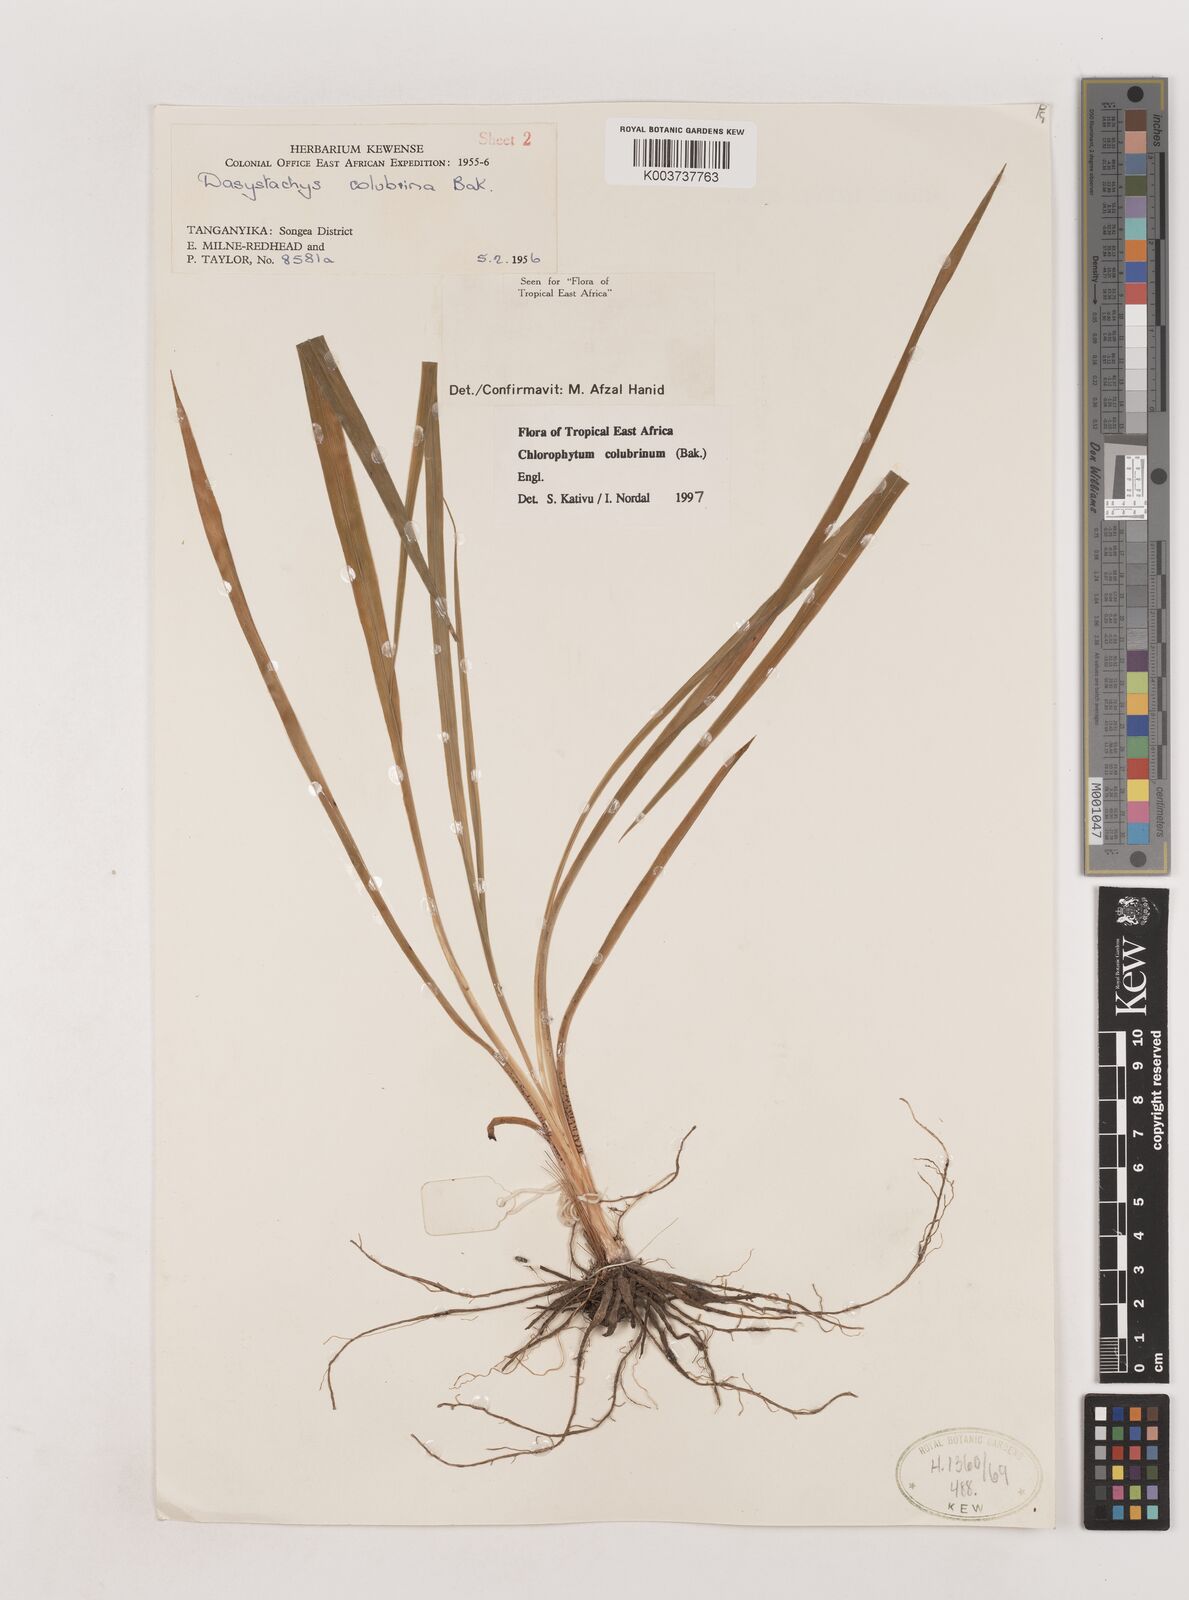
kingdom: Plantae
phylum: Tracheophyta
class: Liliopsida
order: Asparagales
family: Asparagaceae
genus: Chlorophytum
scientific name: Chlorophytum colubrinum
